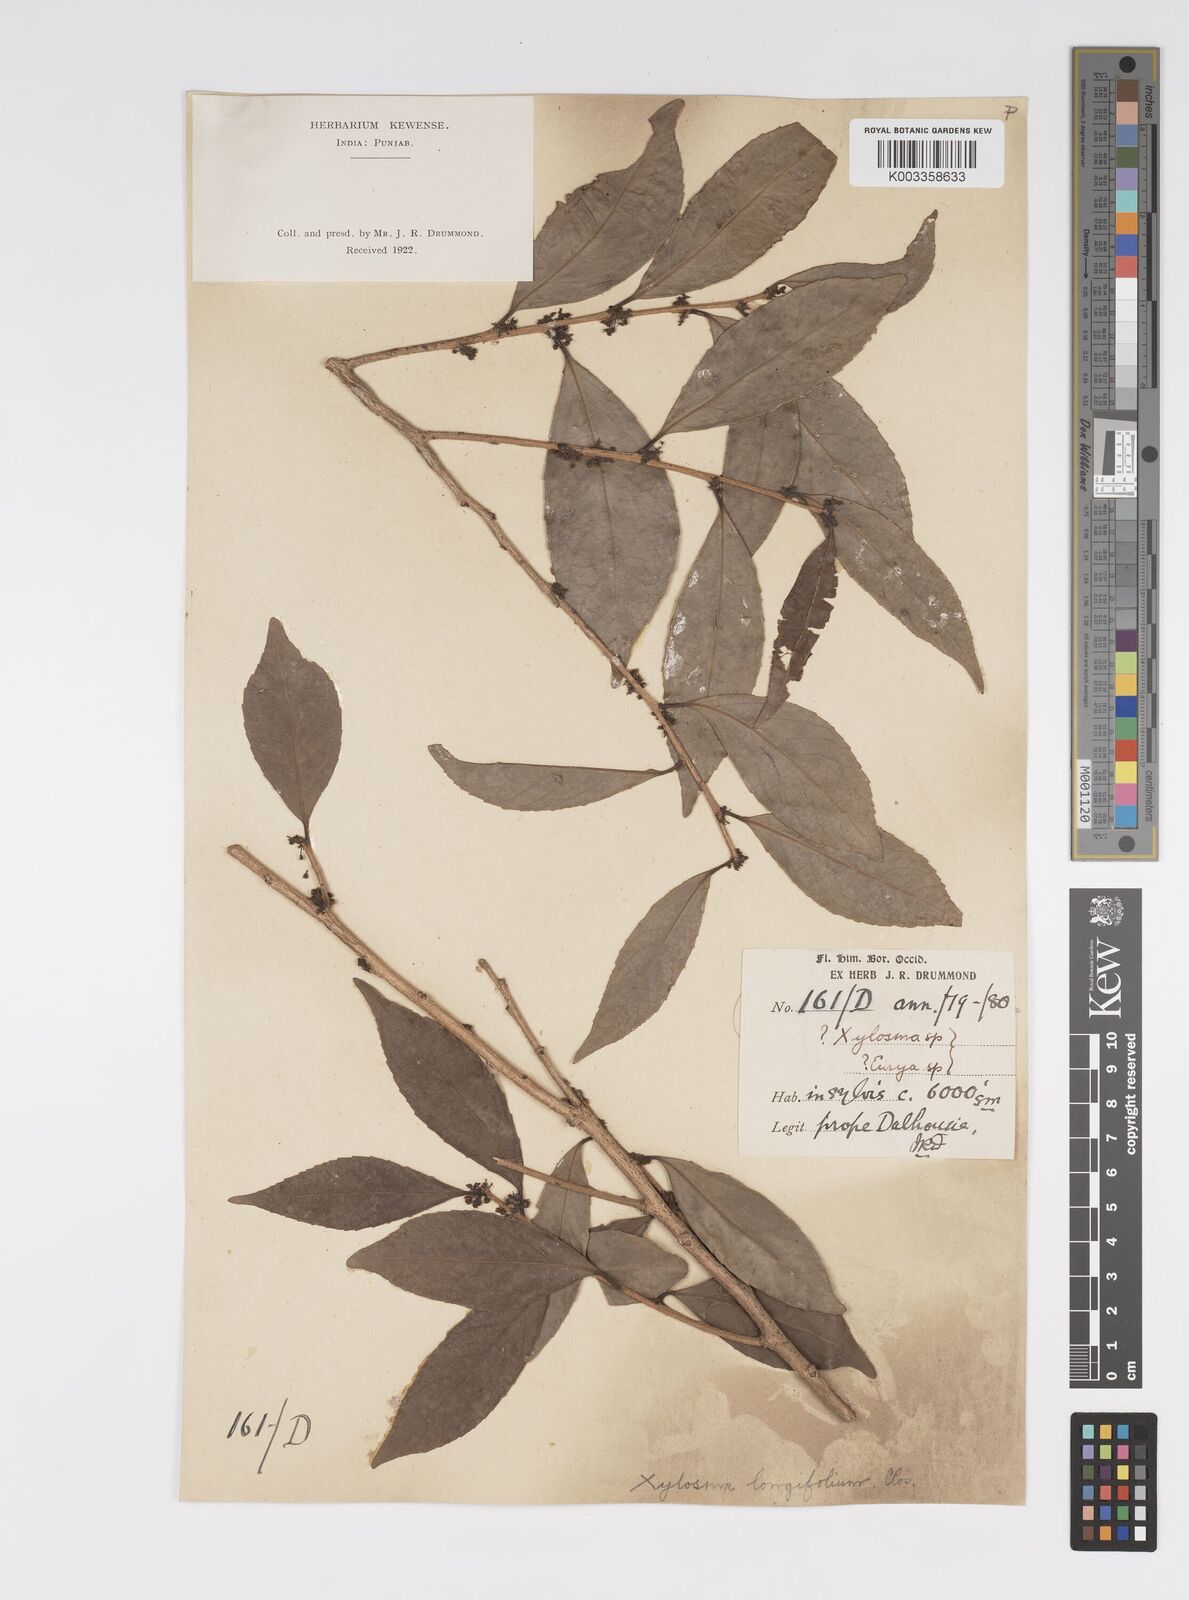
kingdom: Plantae
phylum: Tracheophyta
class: Magnoliopsida
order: Malpighiales
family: Salicaceae
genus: Xylosma
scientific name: Xylosma longifolia
